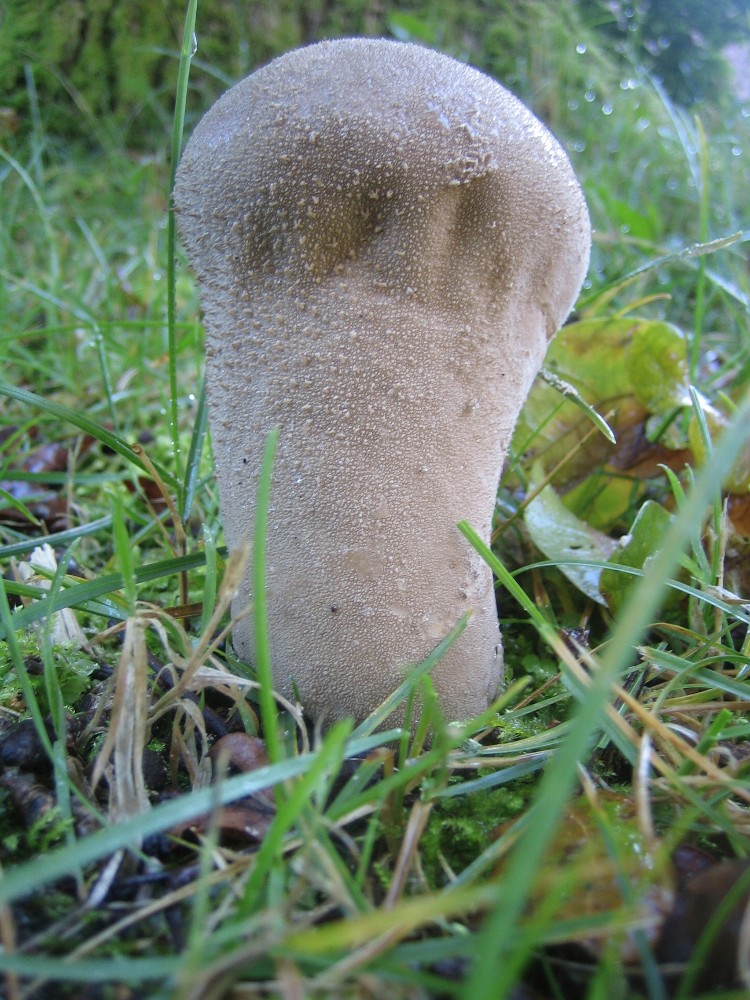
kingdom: Fungi
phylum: Basidiomycota
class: Agaricomycetes
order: Agaricales
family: Lycoperdaceae
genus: Lycoperdon
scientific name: Lycoperdon excipuliforme
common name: højstokket støvbold
